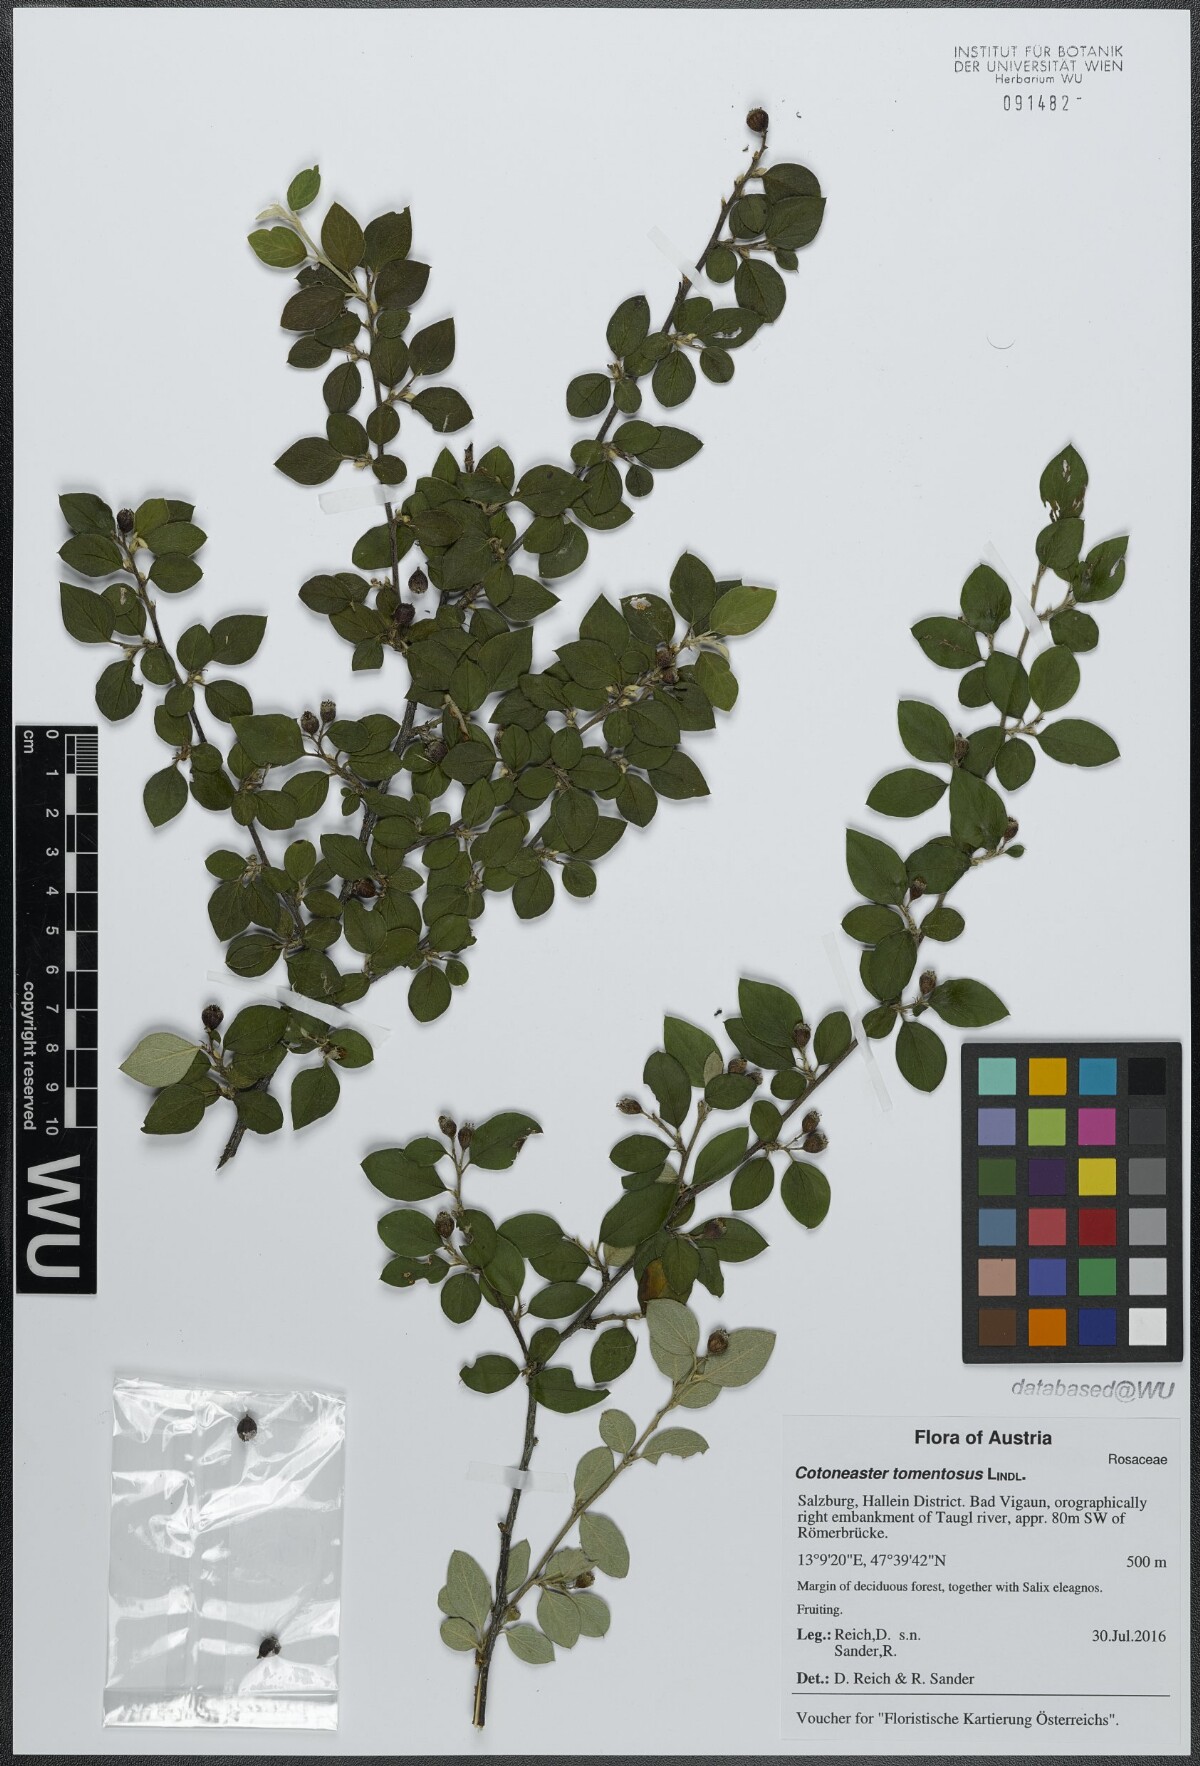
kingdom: Plantae
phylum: Tracheophyta
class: Magnoliopsida
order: Rosales
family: Rosaceae
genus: Cotoneaster
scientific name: Cotoneaster tomentosus
